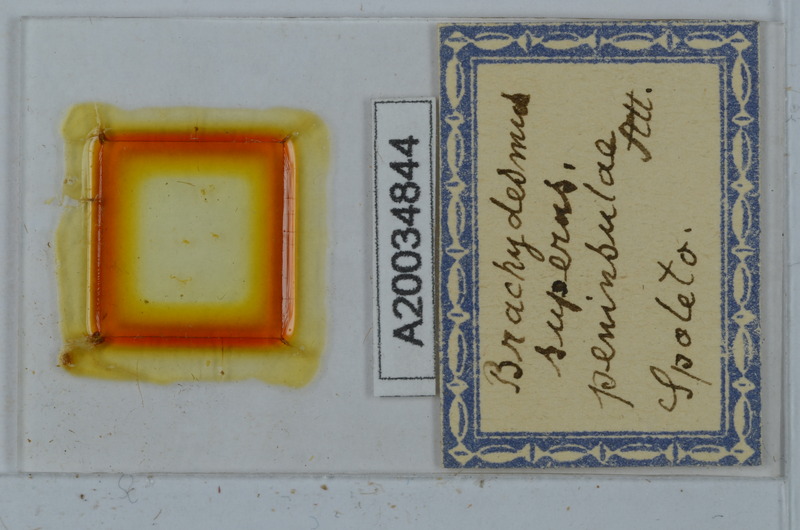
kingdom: Animalia
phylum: Arthropoda
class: Diplopoda
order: Polydesmida
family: Polydesmidae
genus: Brachydesmus
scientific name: Brachydesmus superus
